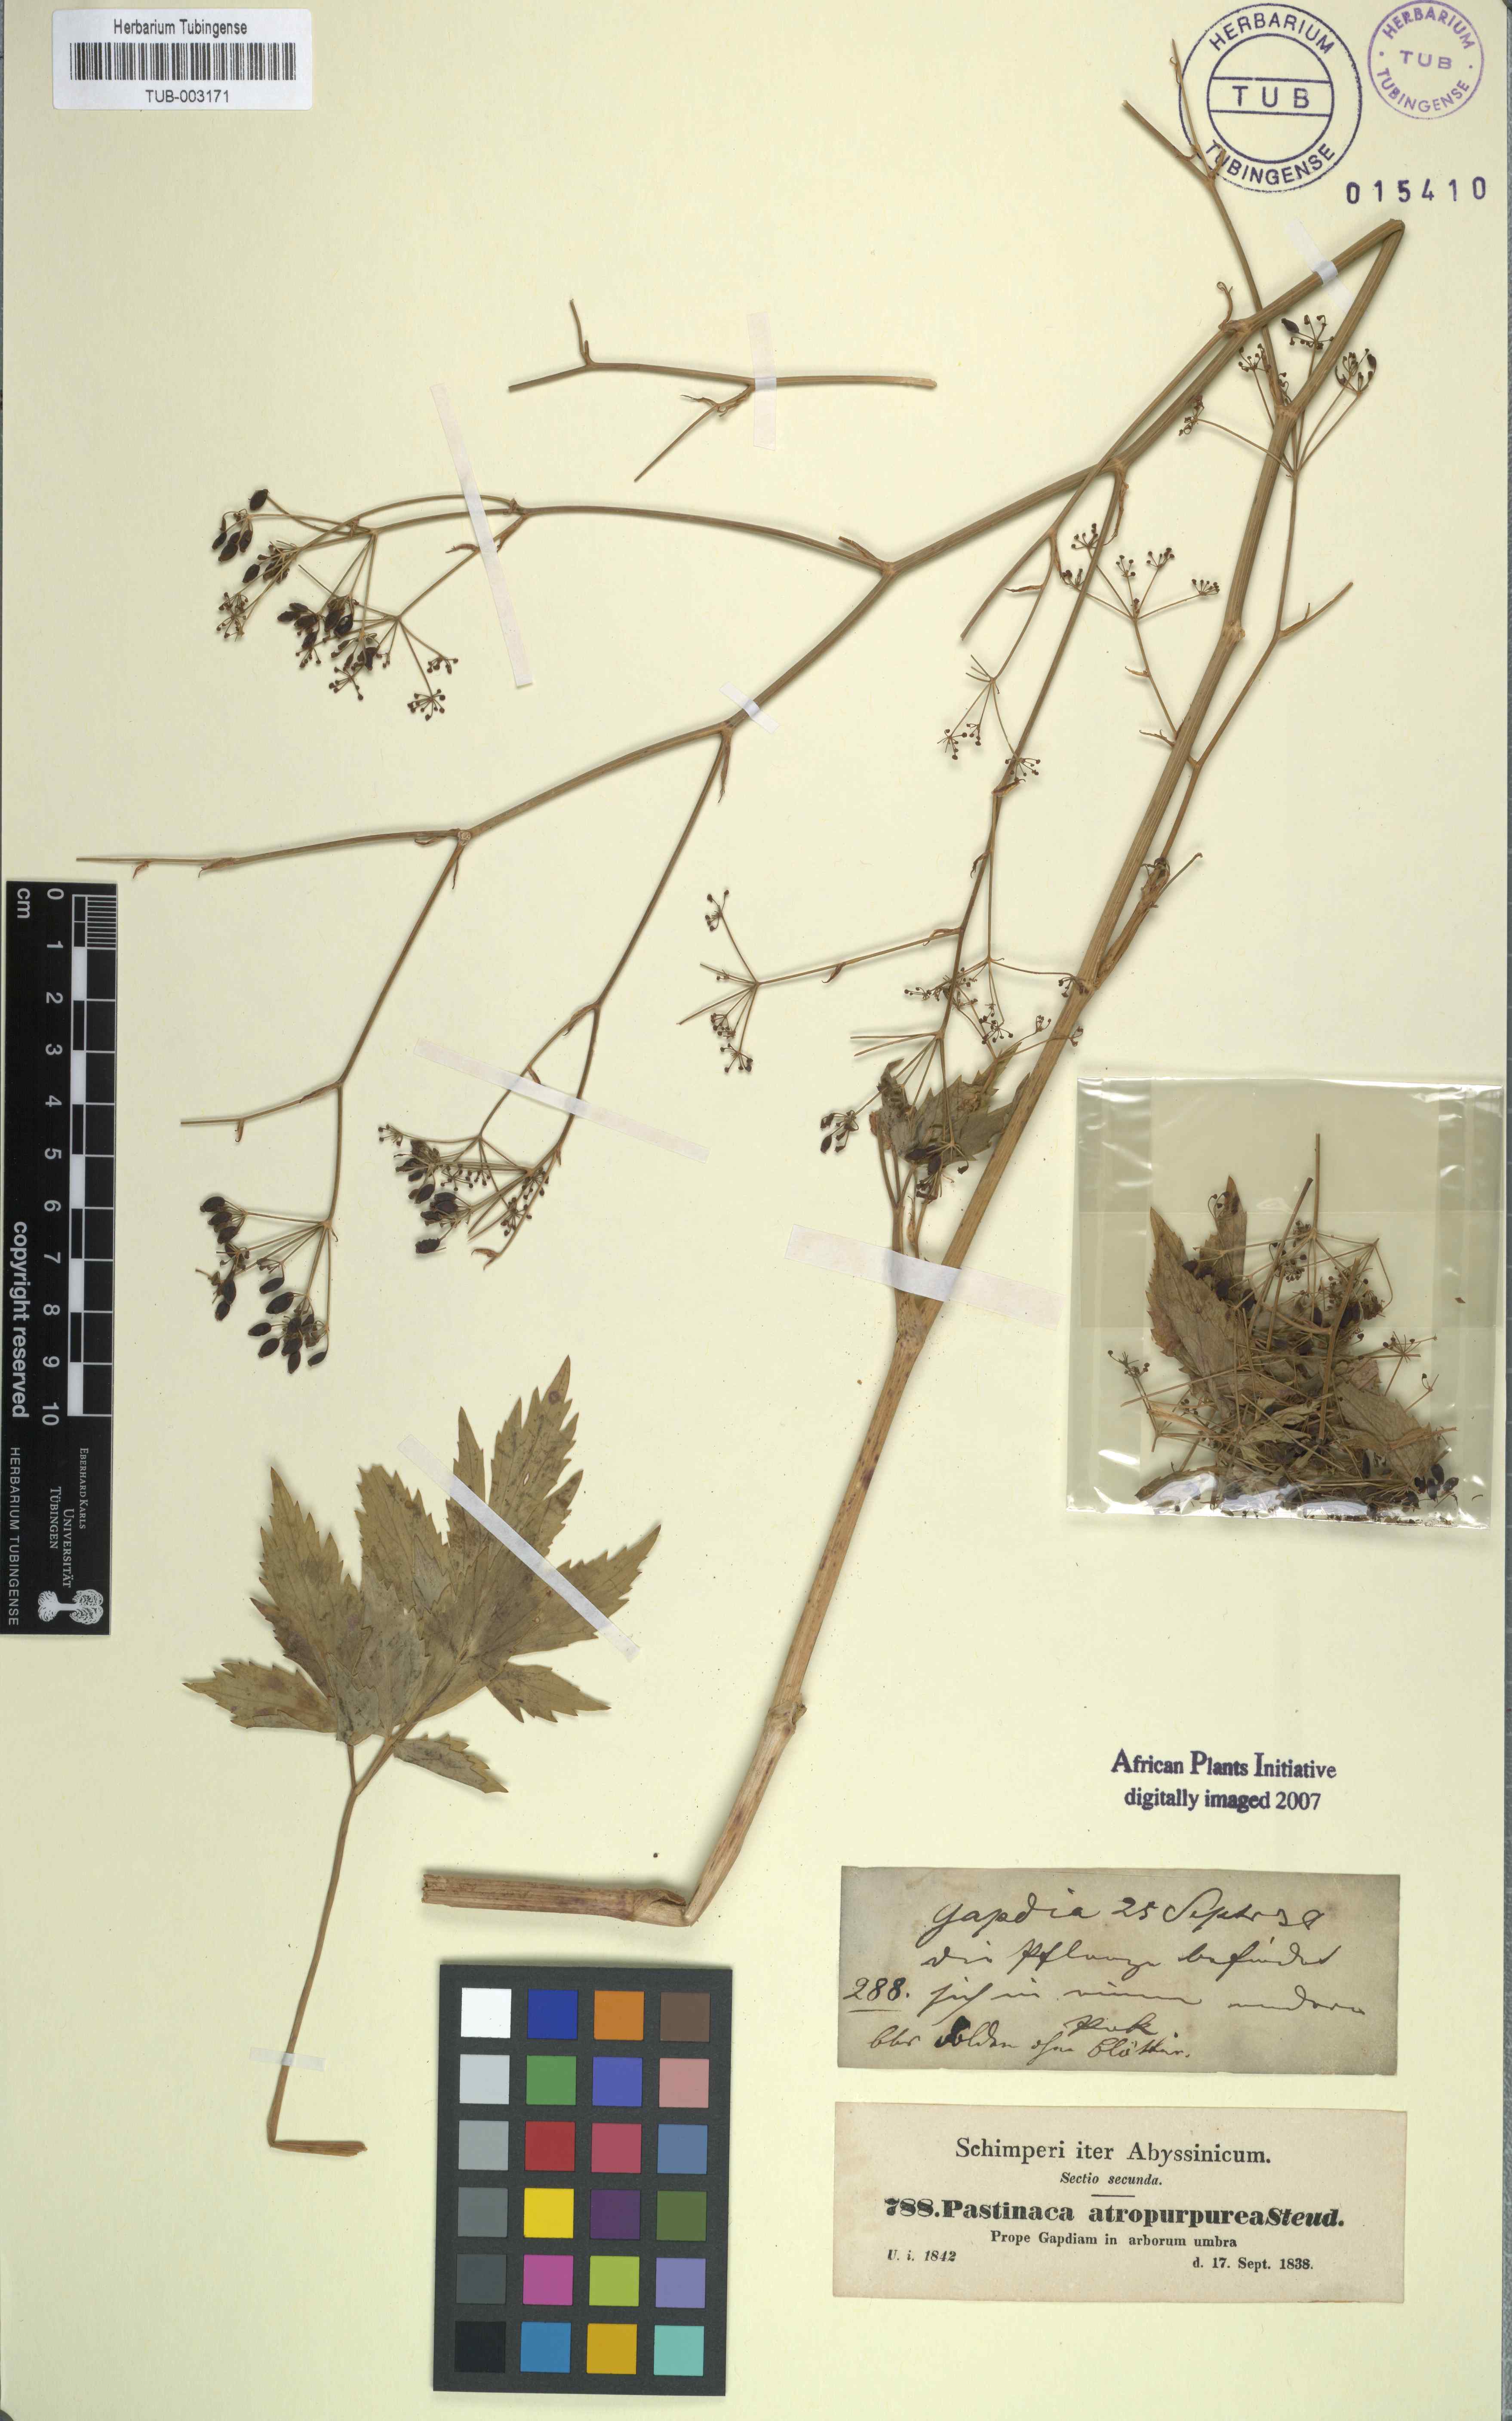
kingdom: Plantae
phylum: Tracheophyta
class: Magnoliopsida
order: Apiales
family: Apiaceae
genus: Lefebvrea
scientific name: Lefebvrea atropurpurea
